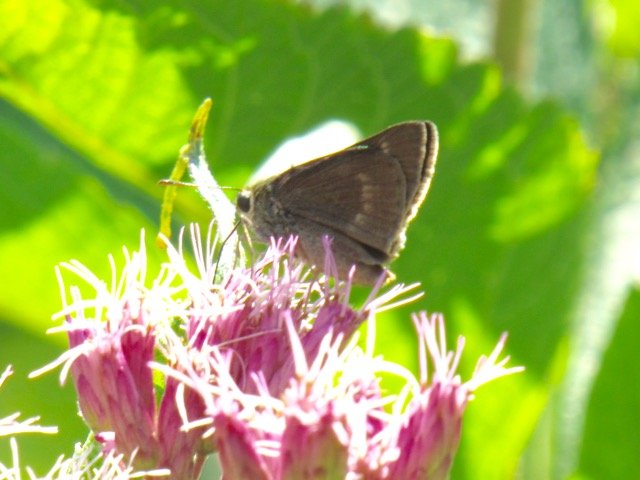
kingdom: Animalia
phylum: Arthropoda
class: Insecta
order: Lepidoptera
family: Hesperiidae
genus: Polites
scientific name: Polites egeremet
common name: Northern Broken-Dash
